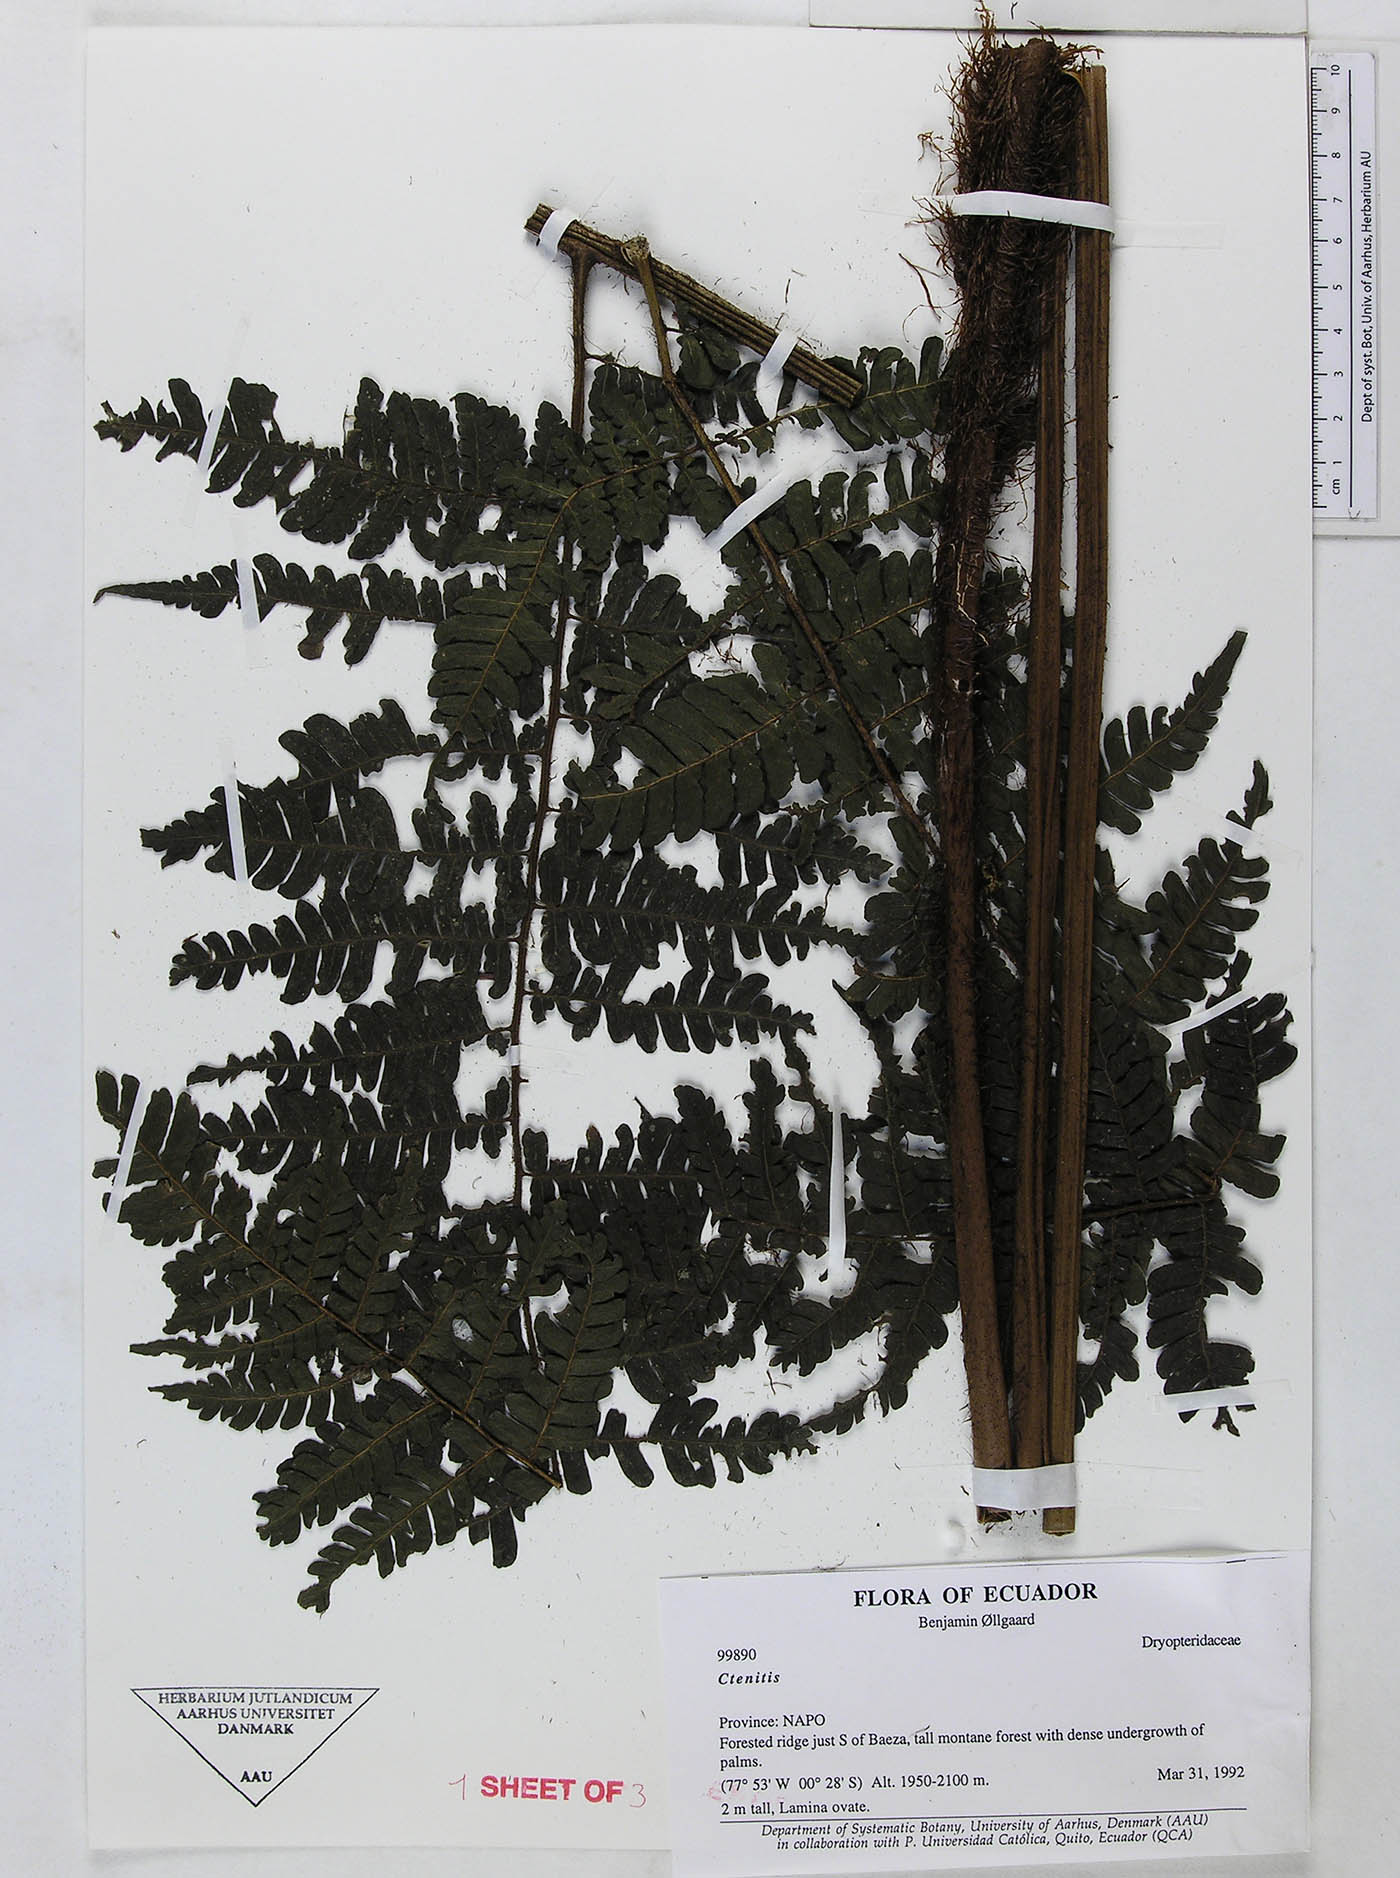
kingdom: Plantae
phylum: Tracheophyta
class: Polypodiopsida
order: Polypodiales
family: Dryopteridaceae
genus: Megalastrum
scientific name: Megalastrum pubirhachis
